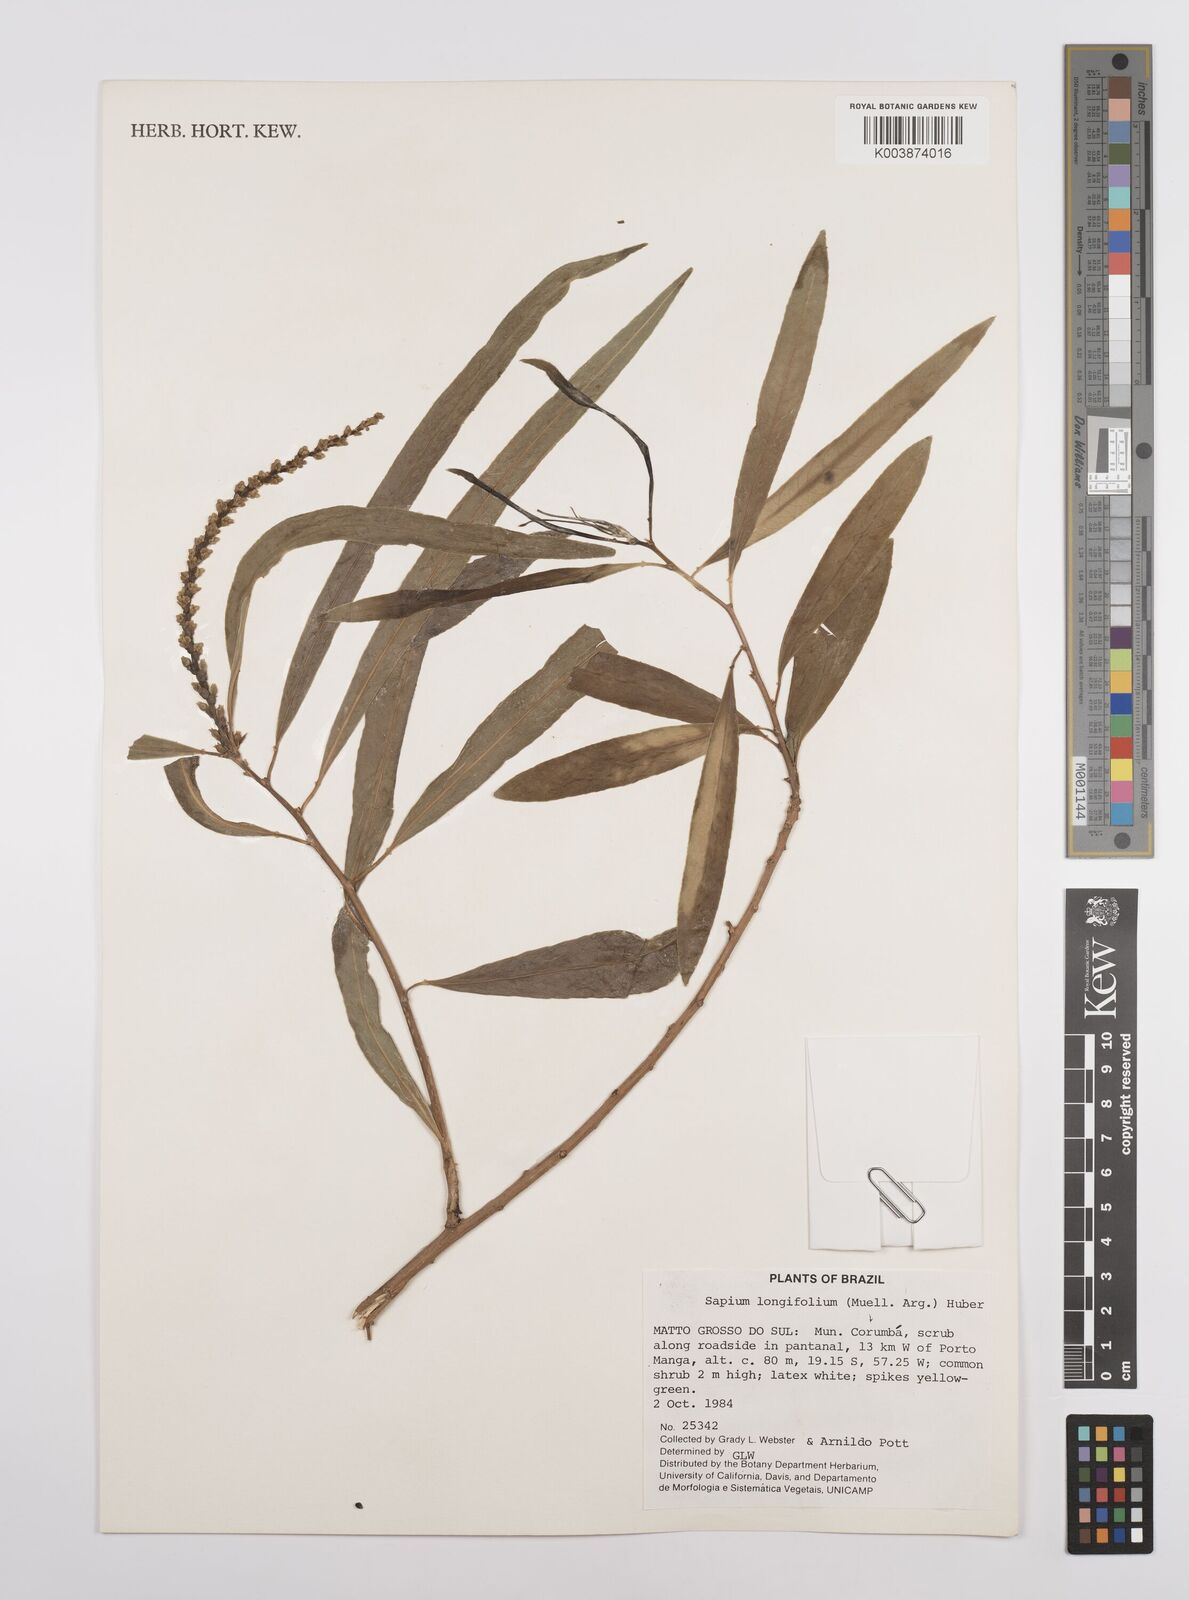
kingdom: Plantae
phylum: Tracheophyta
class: Magnoliopsida
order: Malpighiales
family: Euphorbiaceae
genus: Sapium
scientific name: Sapium haematospermum
